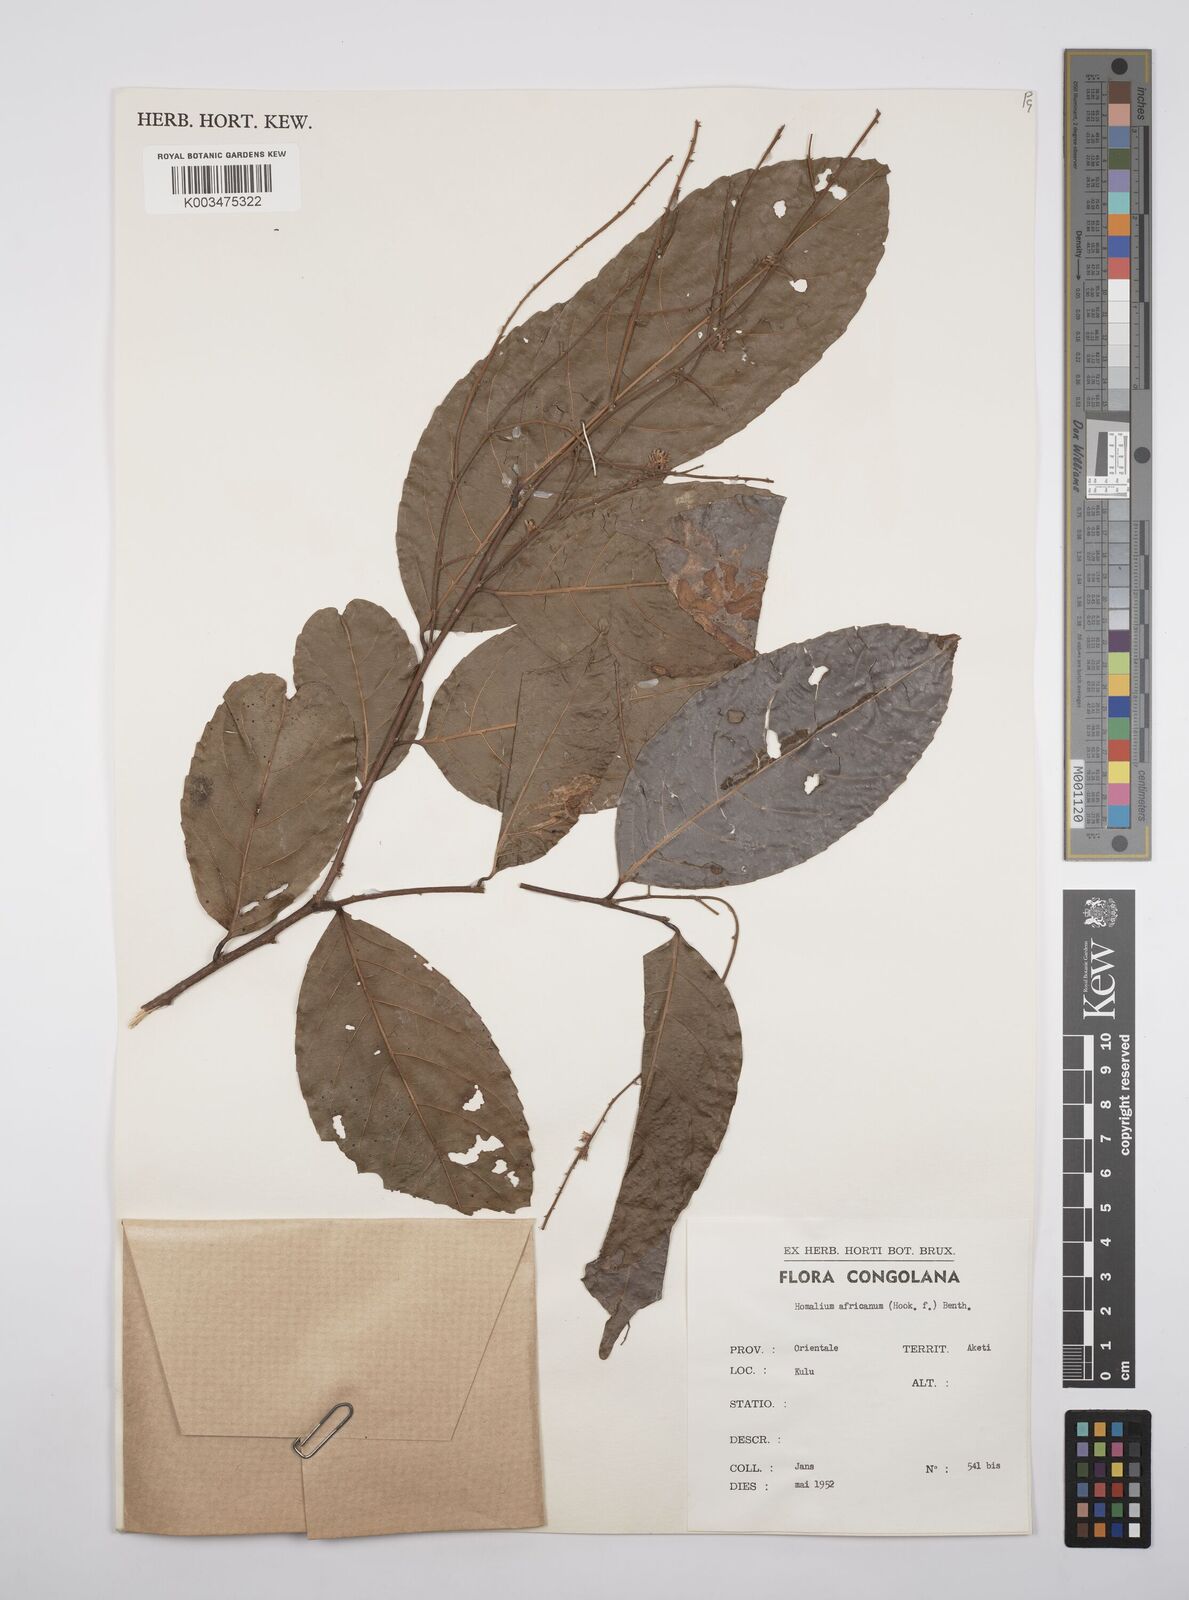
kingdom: Plantae
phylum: Tracheophyta
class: Magnoliopsida
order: Malpighiales
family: Salicaceae
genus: Homalium
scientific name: Homalium africanum
